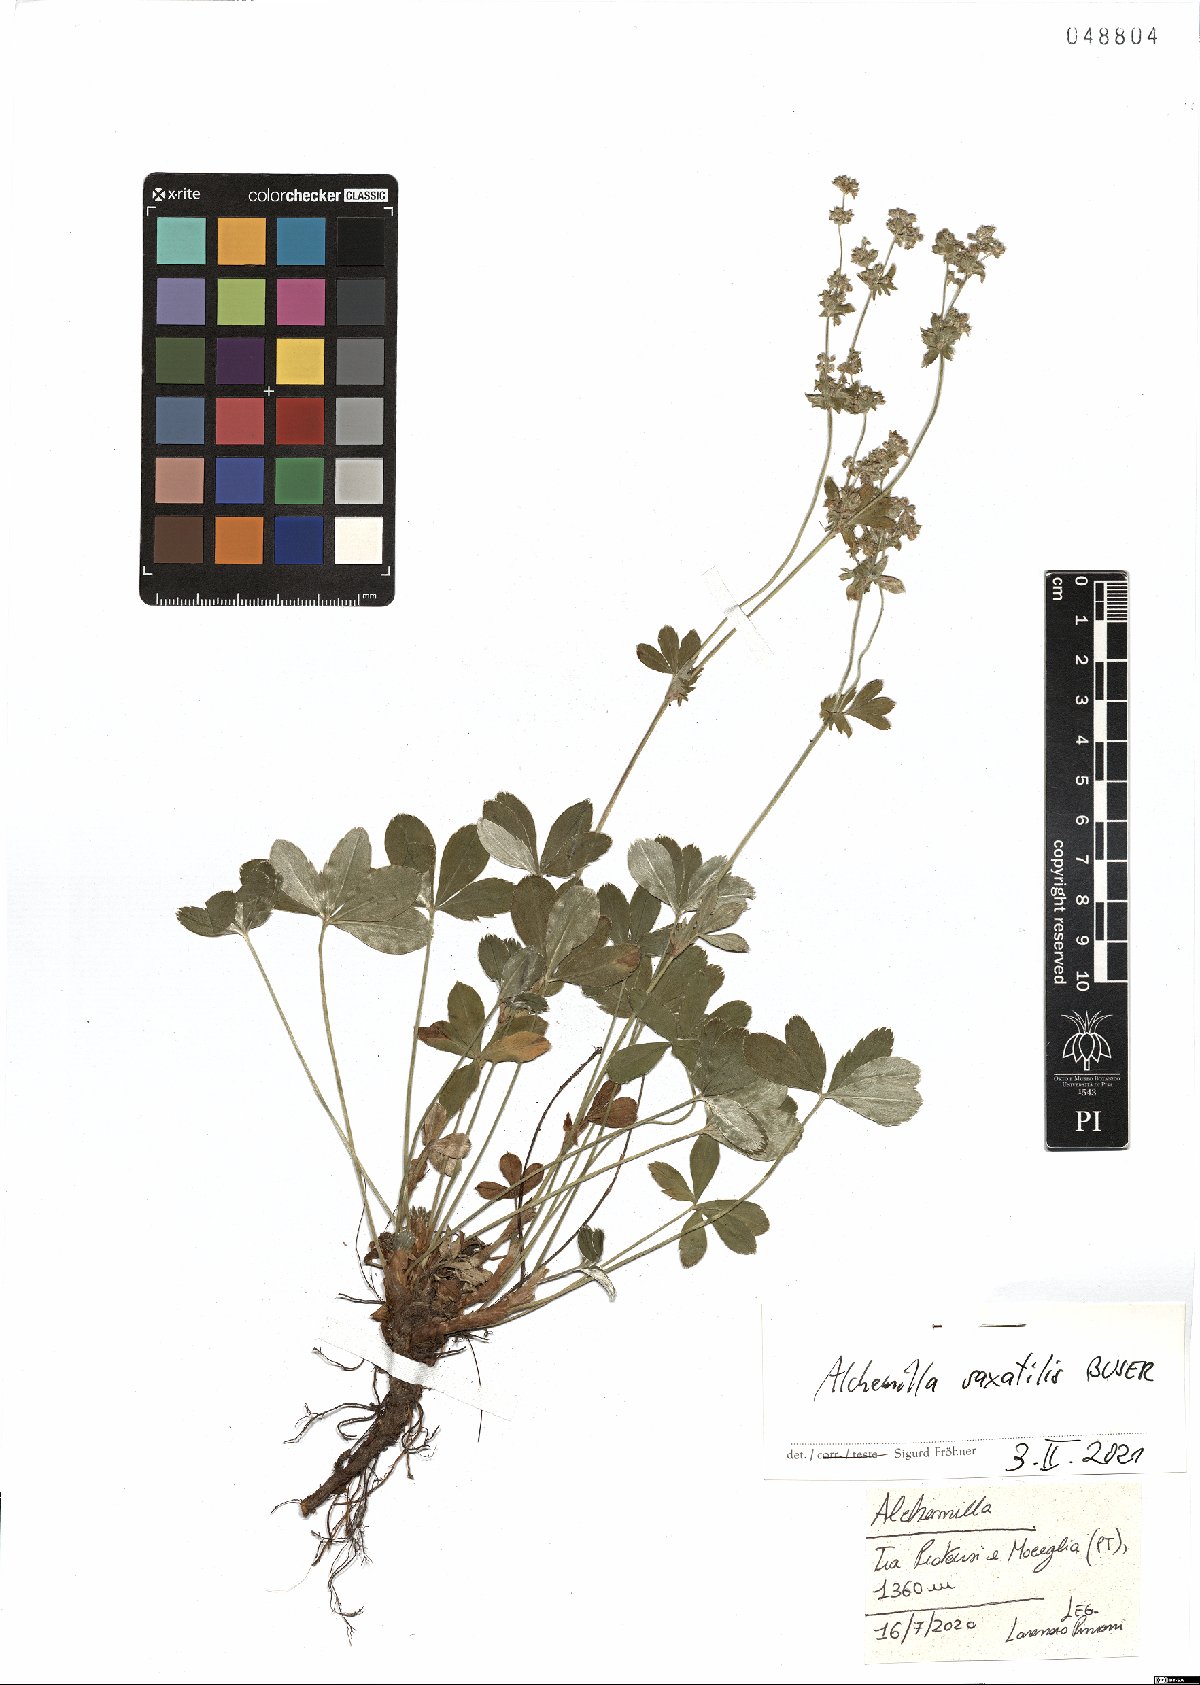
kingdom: Plantae
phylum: Tracheophyta
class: Magnoliopsida
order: Rosales
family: Rosaceae
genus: Alchemilla
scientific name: Alchemilla saxatilis
